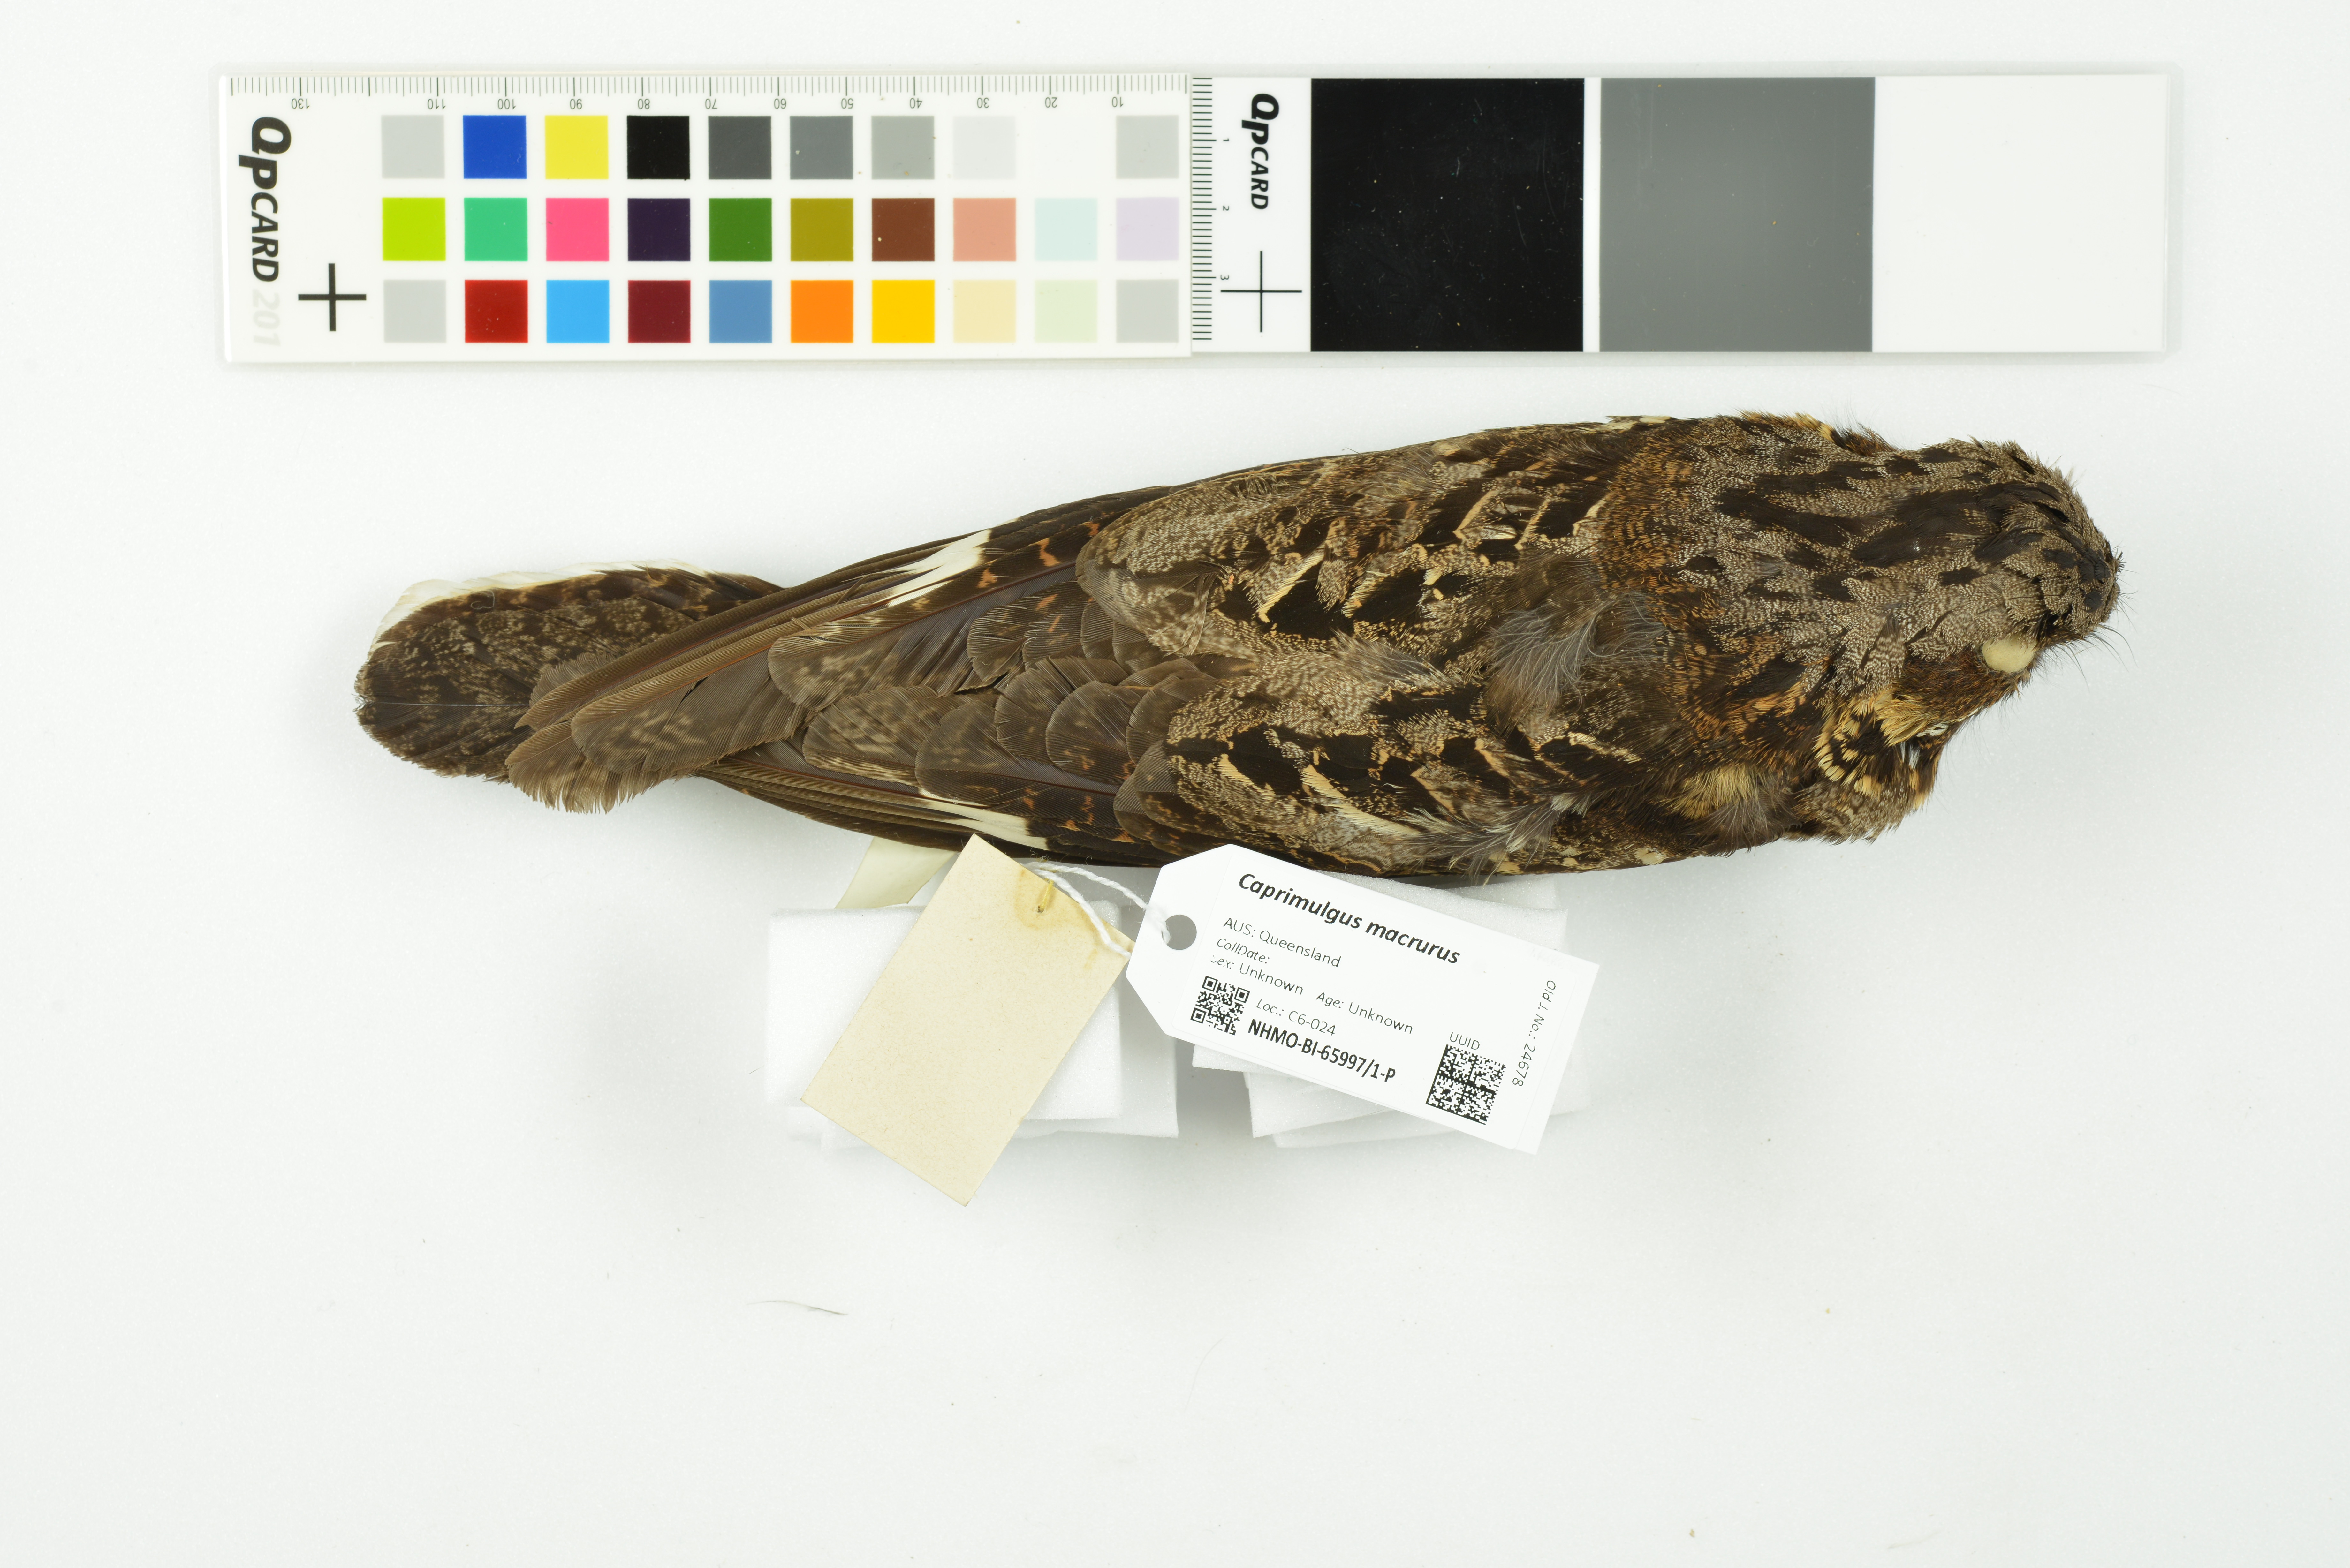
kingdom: Animalia
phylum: Chordata
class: Aves
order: Caprimulgiformes
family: Caprimulgidae
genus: Caprimulgus
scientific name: Caprimulgus macrurus
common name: Large-tailed nightjar
